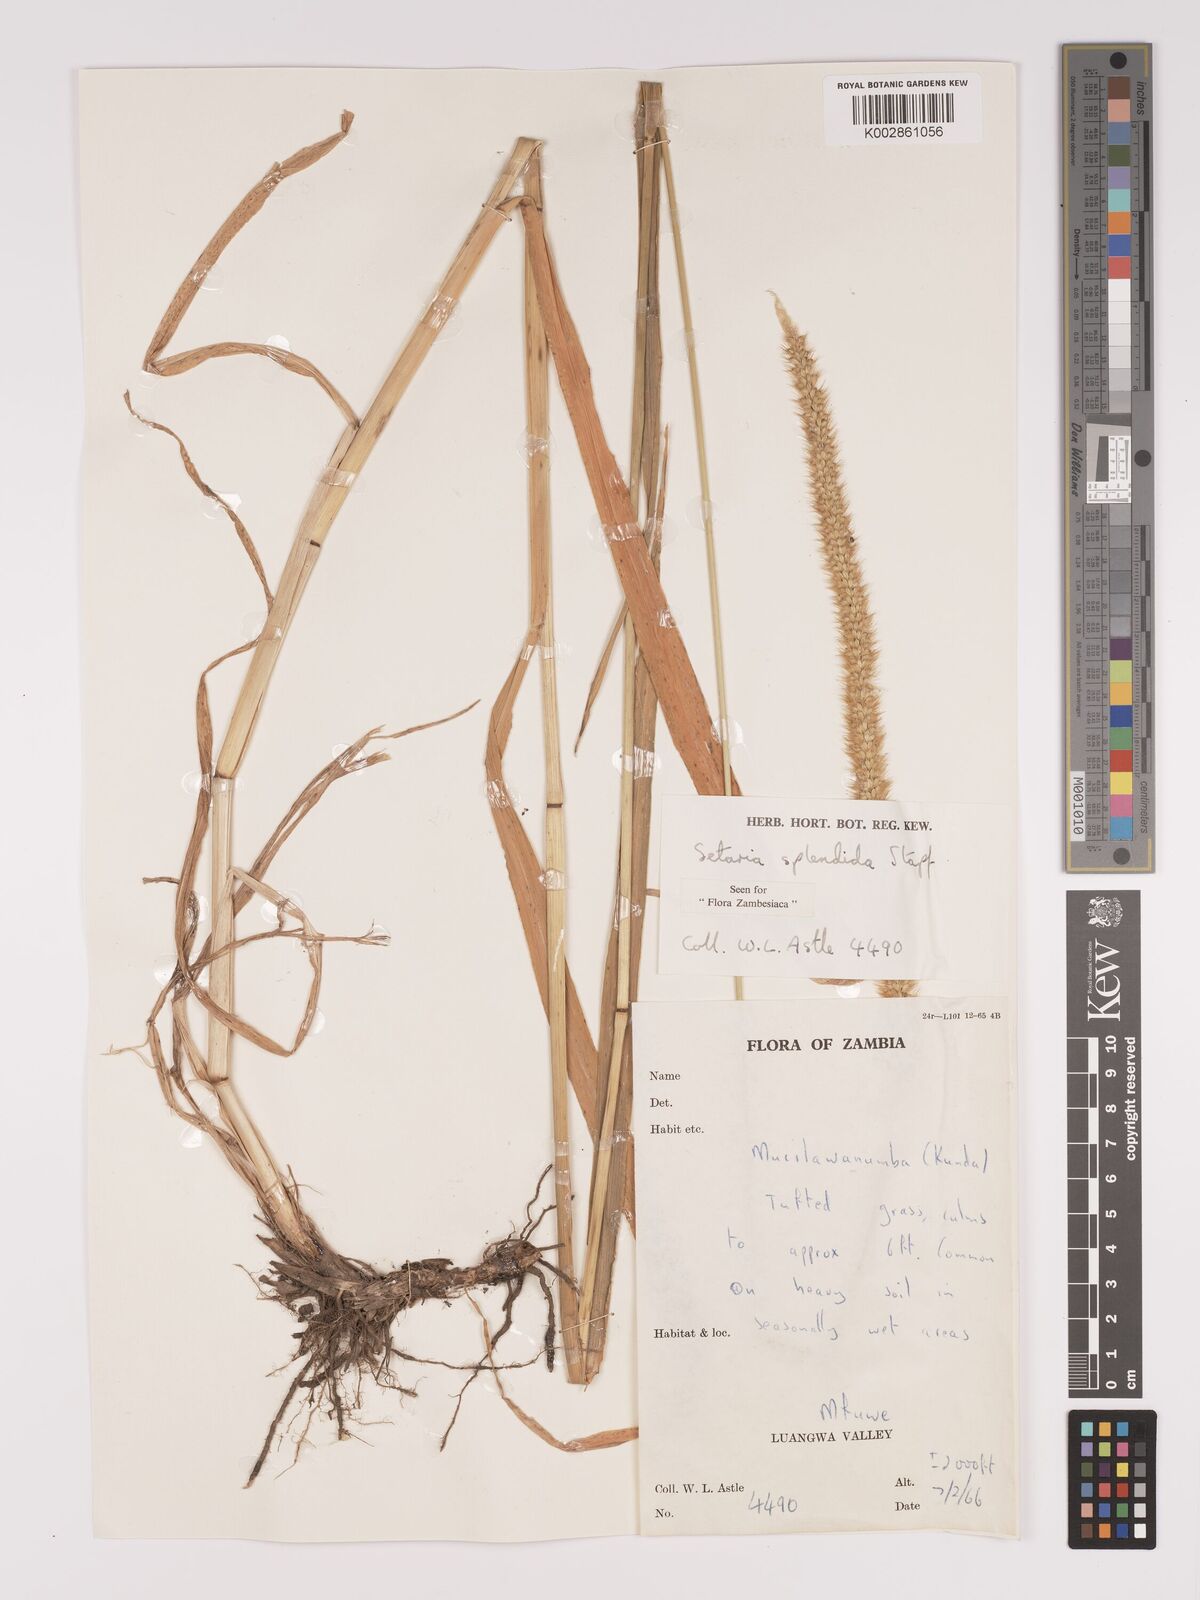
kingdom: Plantae
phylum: Tracheophyta
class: Liliopsida
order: Poales
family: Poaceae
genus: Setaria
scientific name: Setaria sphacelata
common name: African bristlegrass
